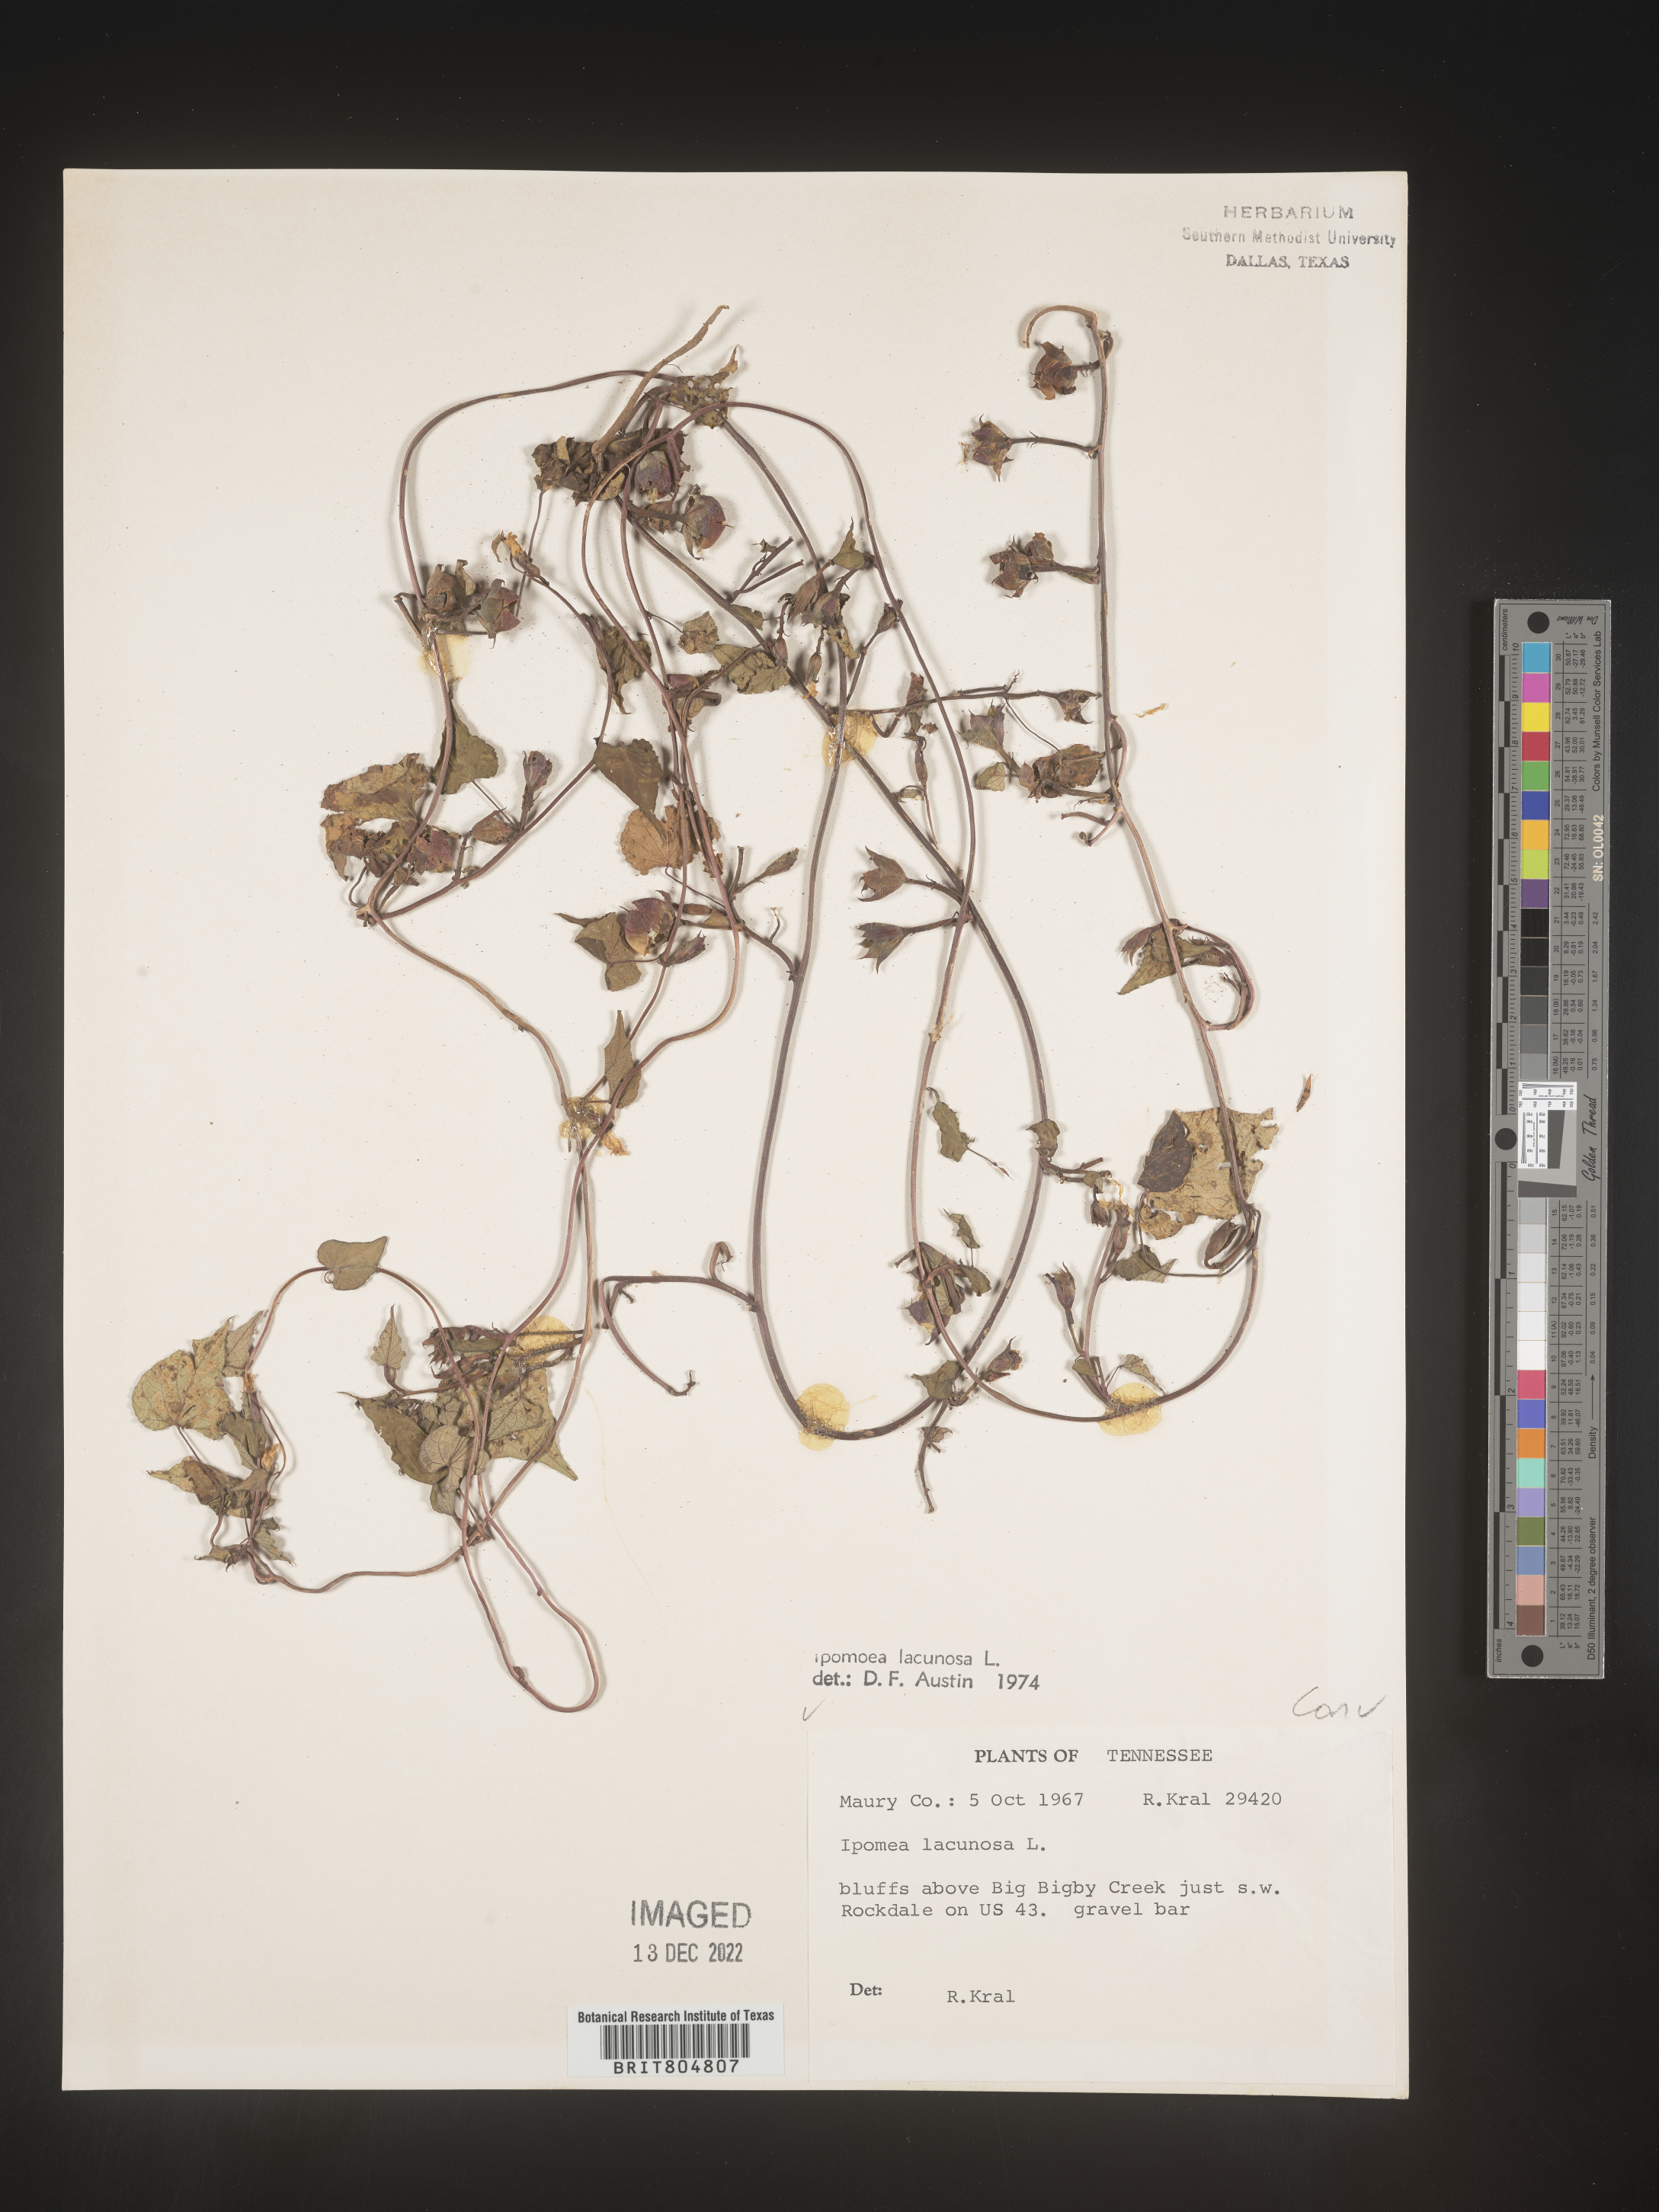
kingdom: Plantae
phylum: Tracheophyta
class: Magnoliopsida
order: Solanales
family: Convolvulaceae
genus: Ipomoea
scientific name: Ipomoea lacunosa
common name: White morning-glory
